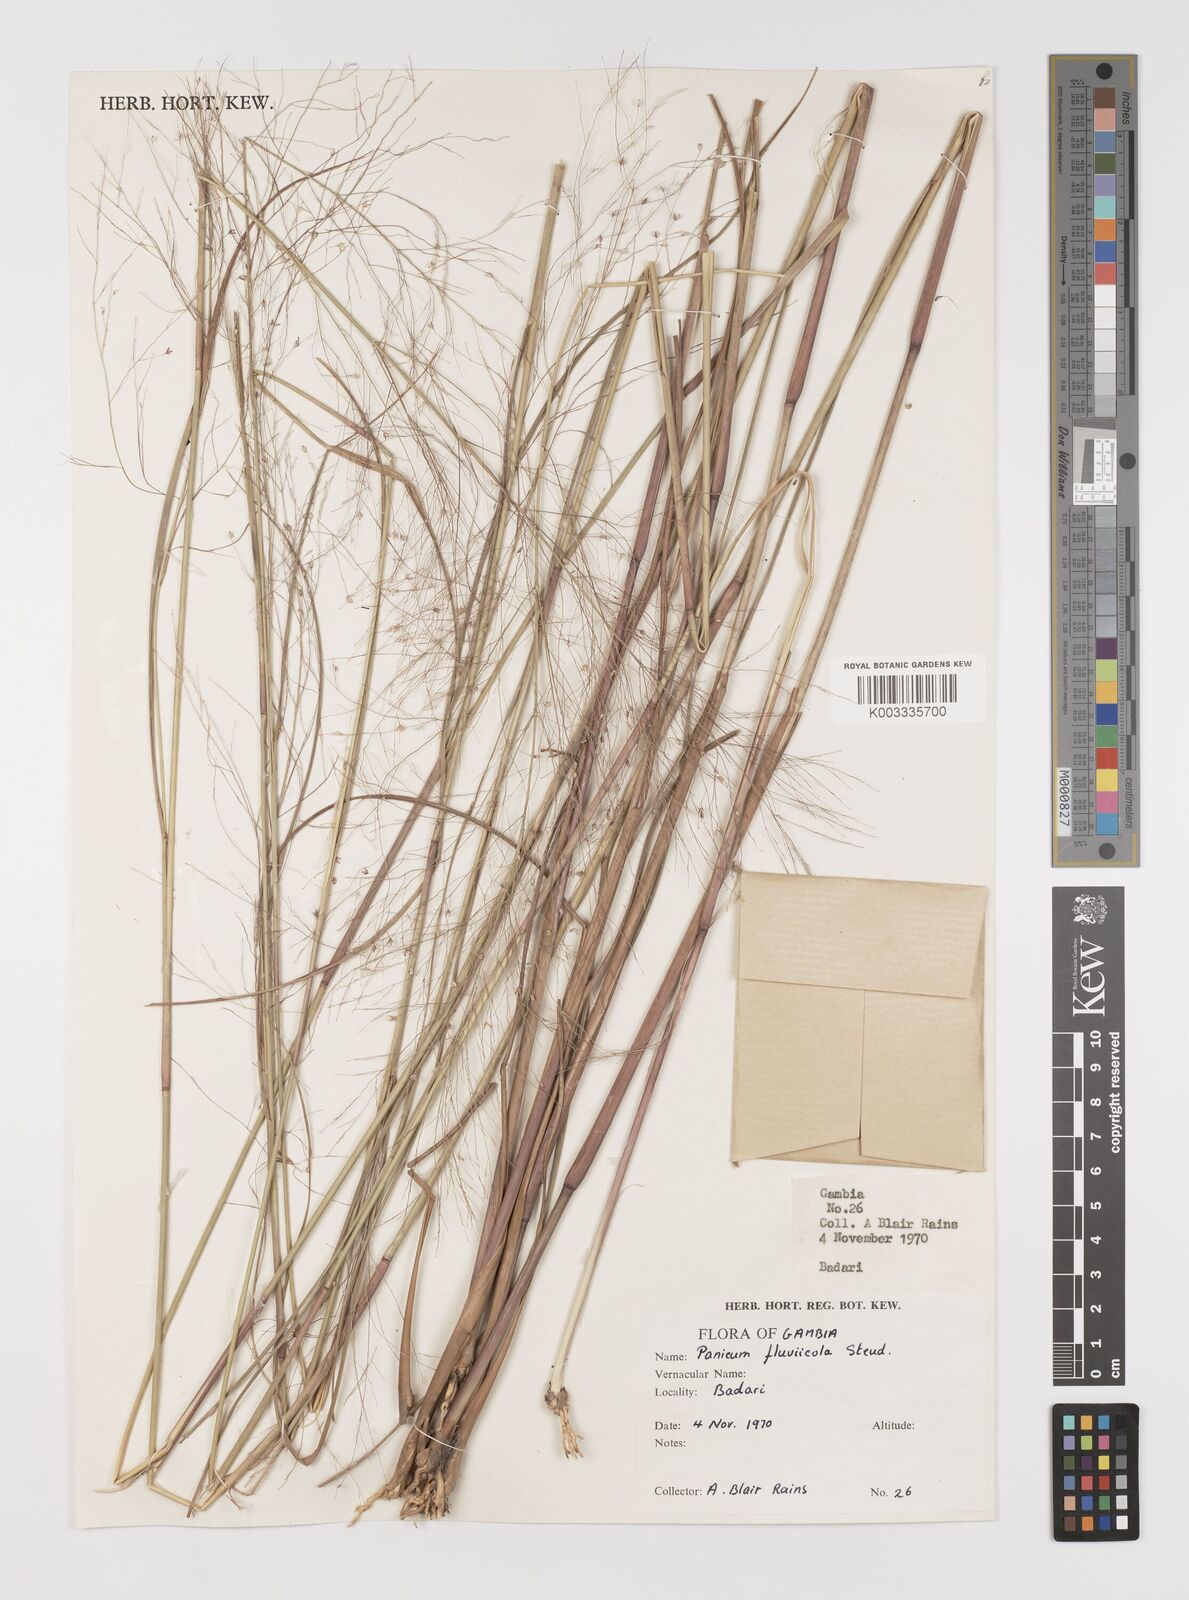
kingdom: Plantae
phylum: Tracheophyta
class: Liliopsida
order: Poales
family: Poaceae
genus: Panicum
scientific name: Panicum fluviicola
